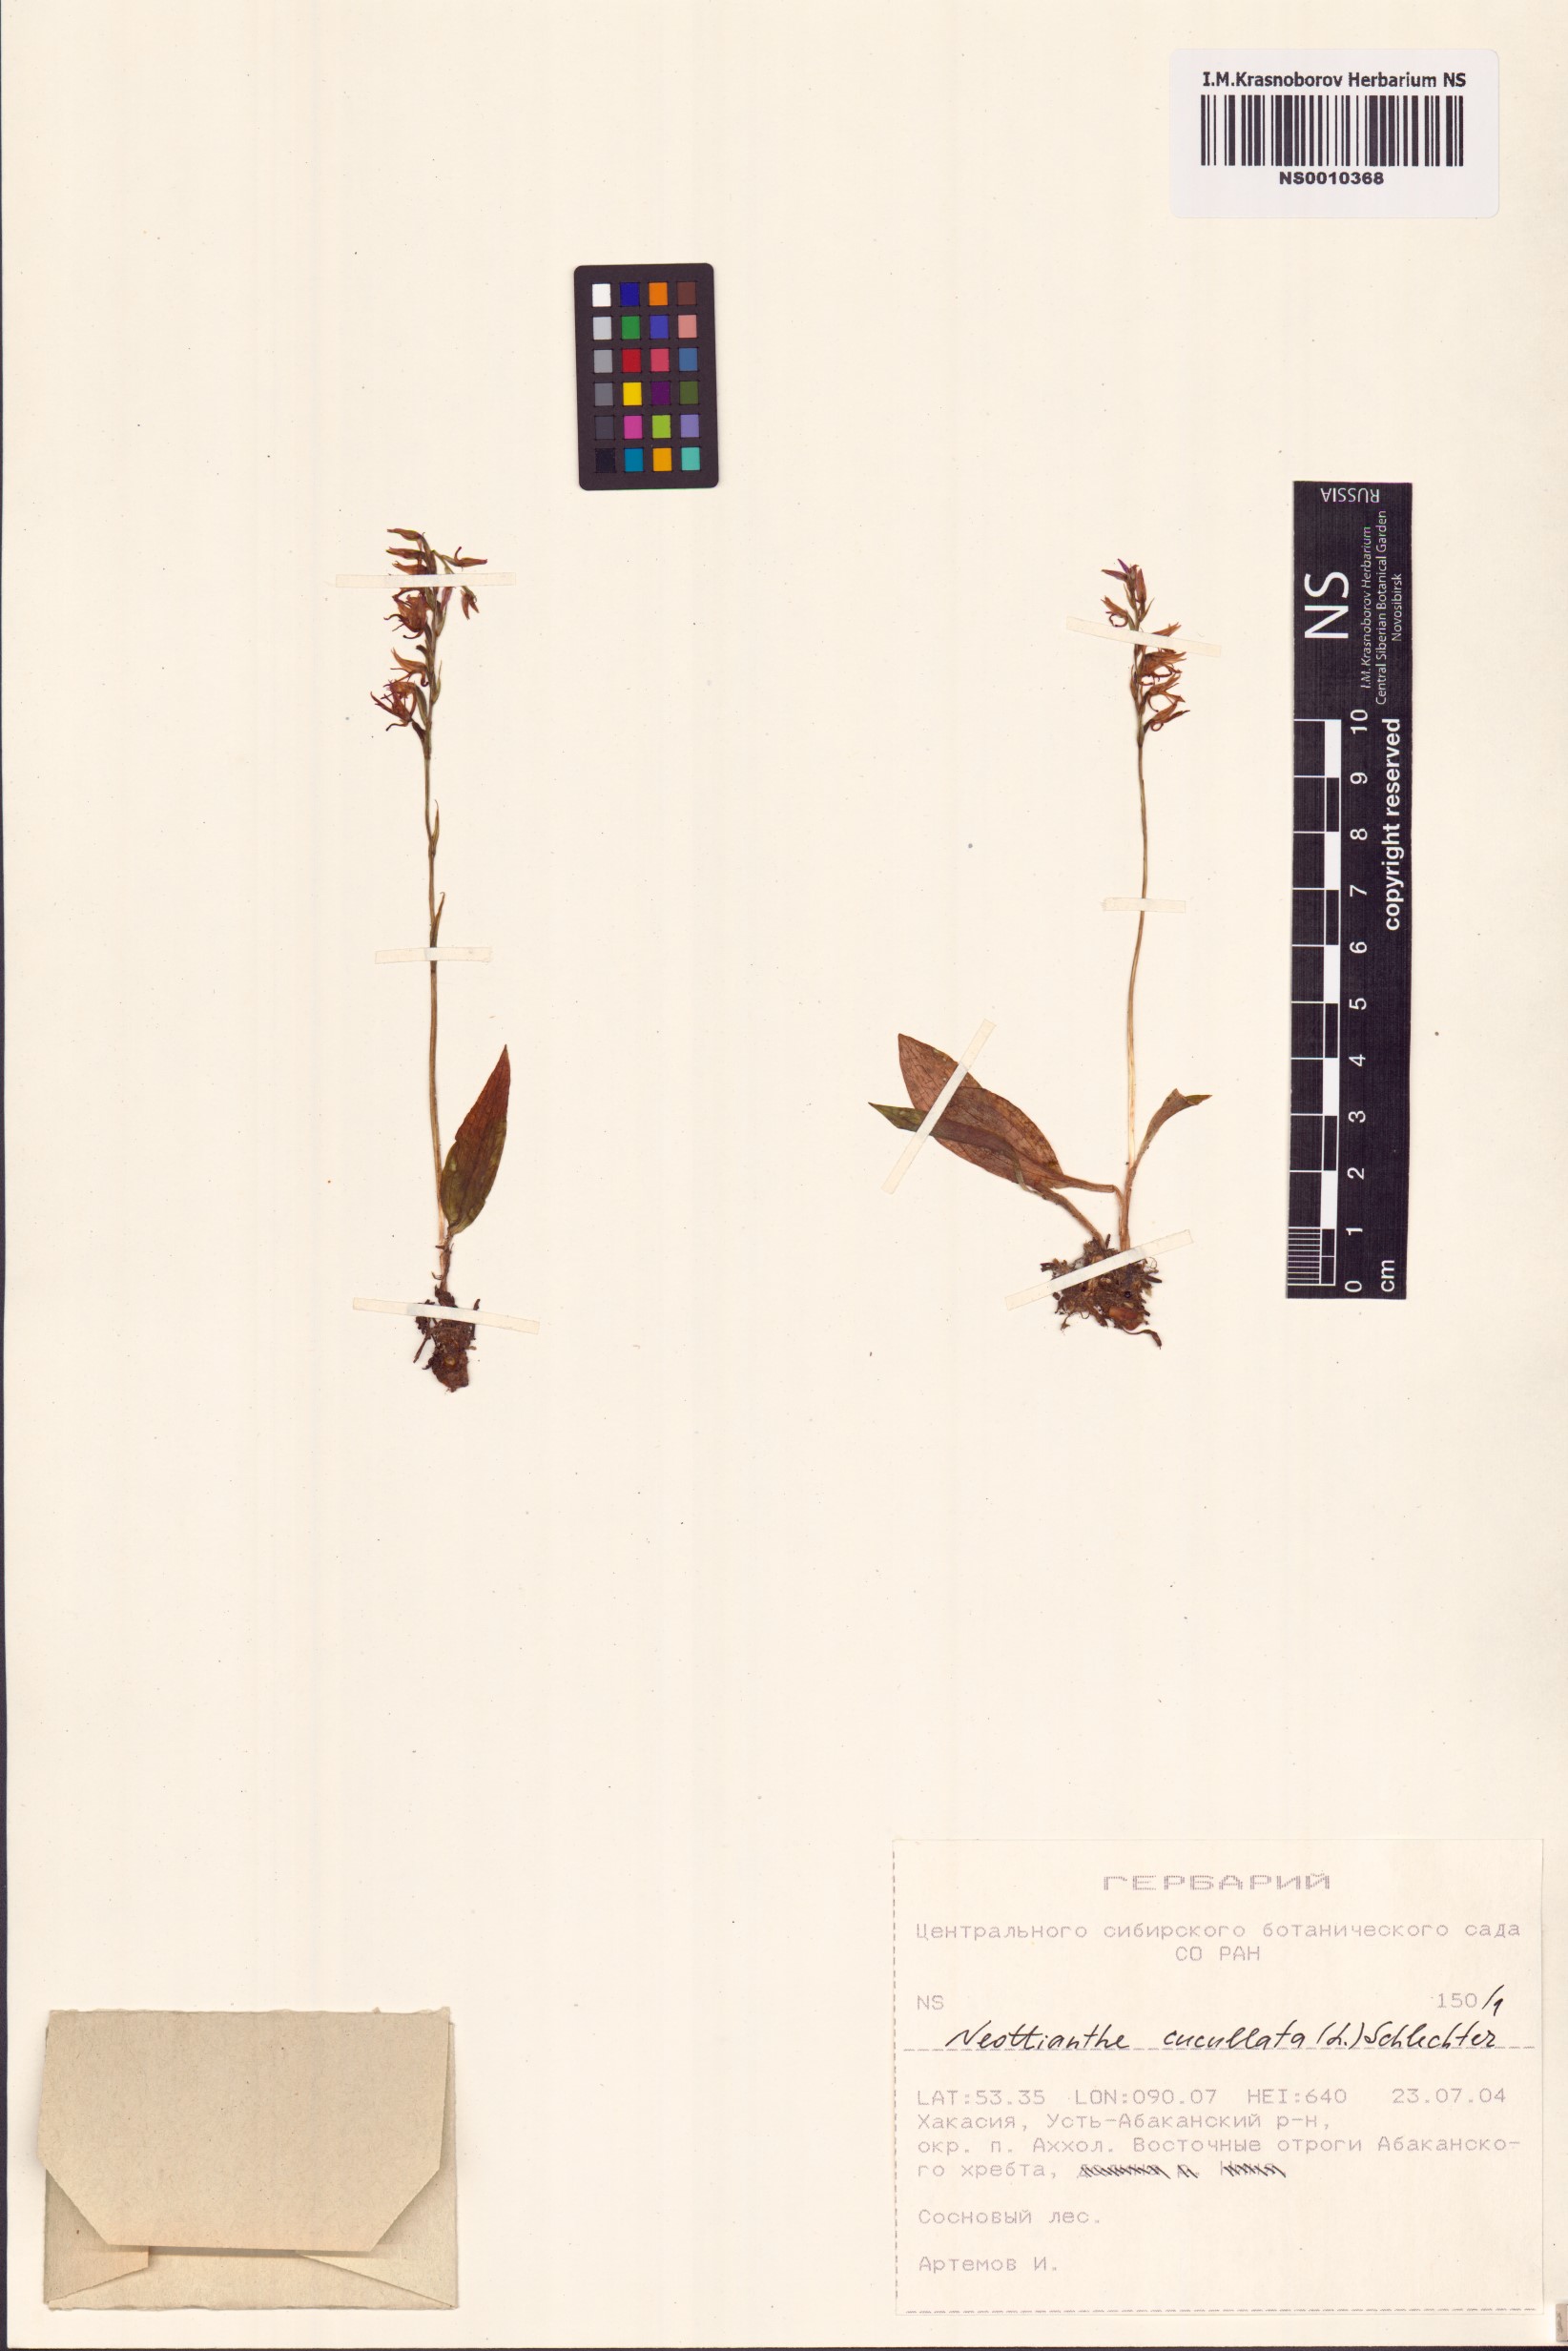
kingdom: Plantae
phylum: Tracheophyta
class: Liliopsida
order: Asparagales
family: Orchidaceae
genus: Hemipilia
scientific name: Hemipilia cucullata
